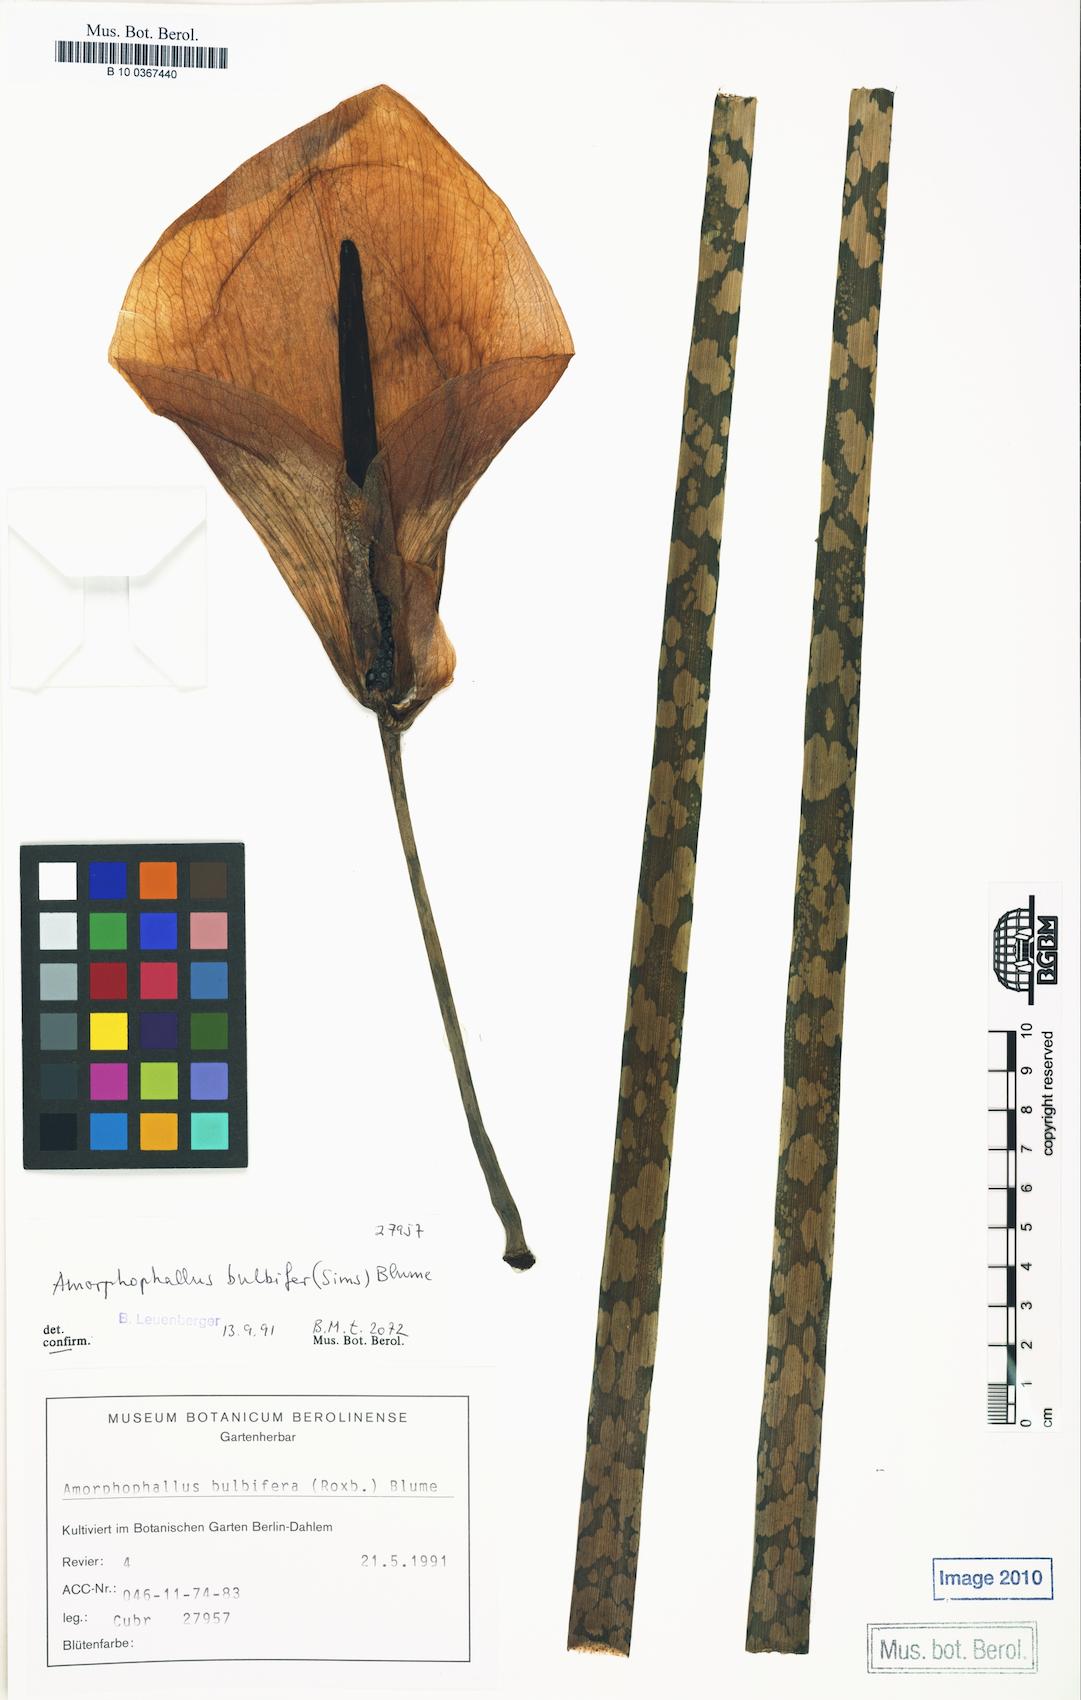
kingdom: Plantae
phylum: Tracheophyta
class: Liliopsida
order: Alismatales
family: Araceae
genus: Amorphophallus
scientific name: Amorphophallus bulbifer
